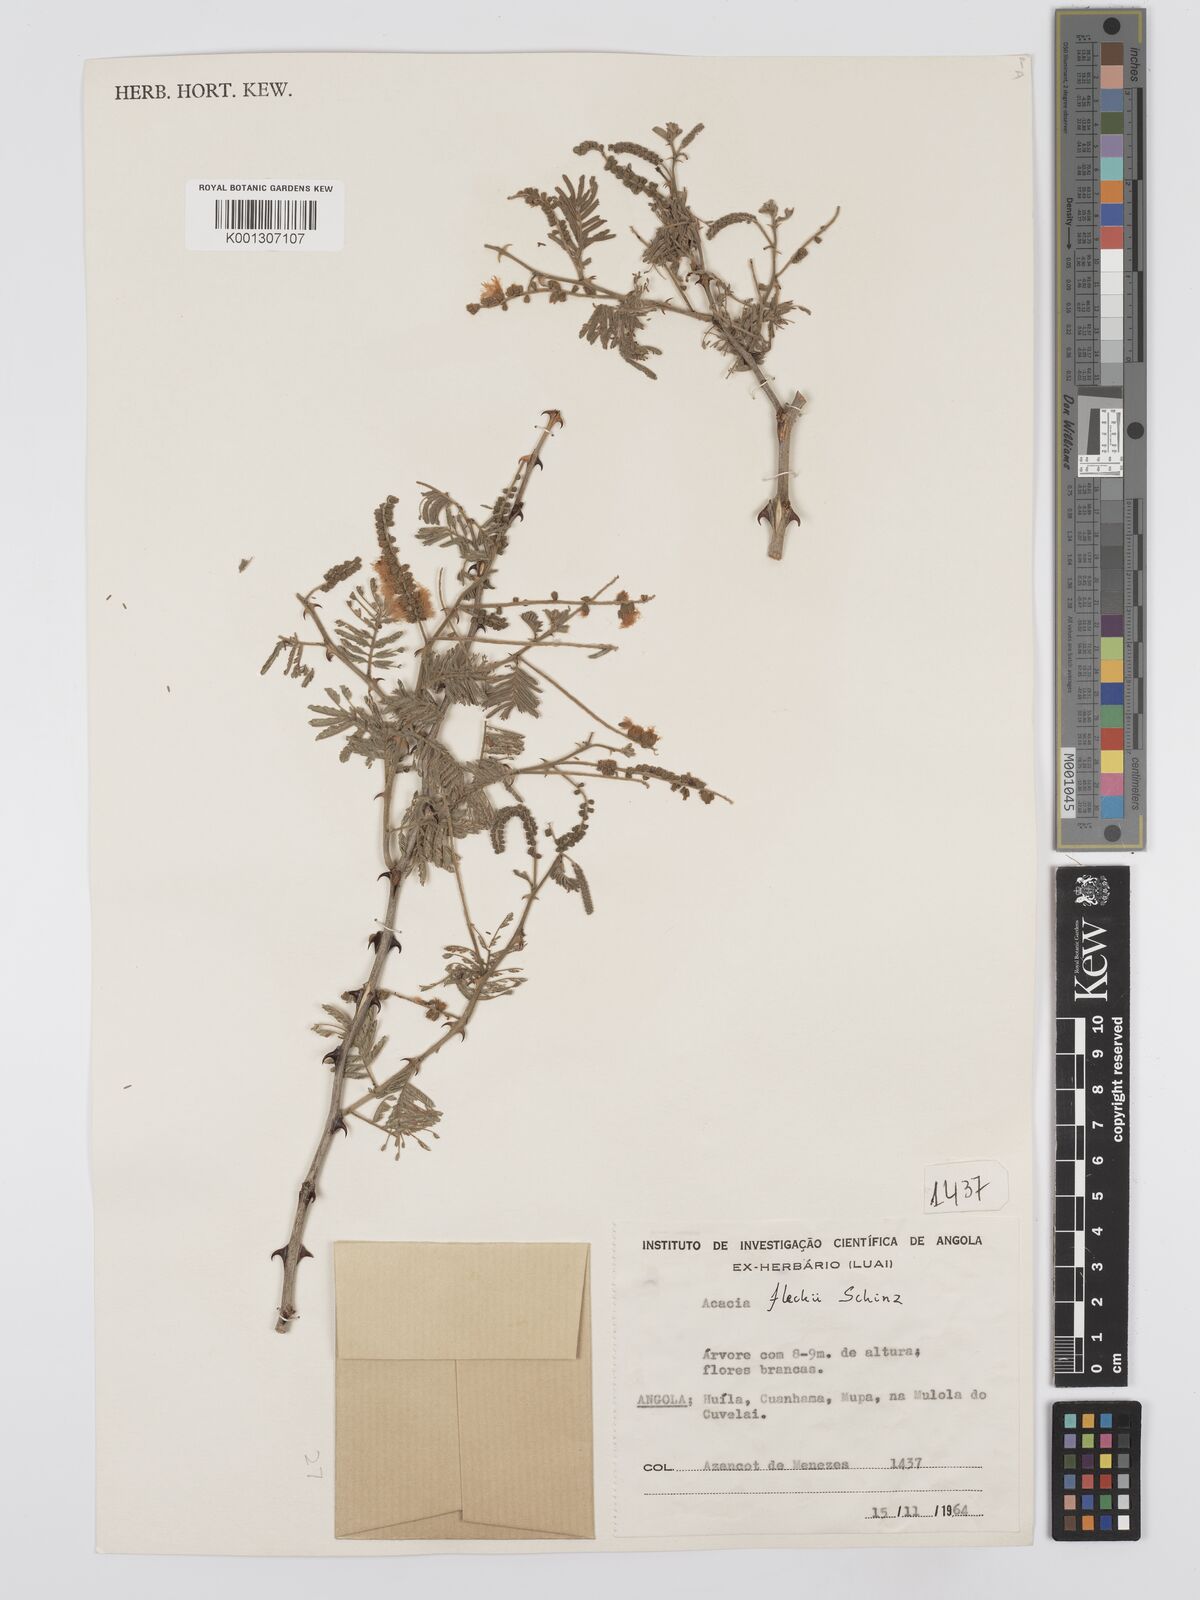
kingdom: Plantae
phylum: Tracheophyta
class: Magnoliopsida
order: Fabales
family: Fabaceae
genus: Senegalia
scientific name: Senegalia fleckii
